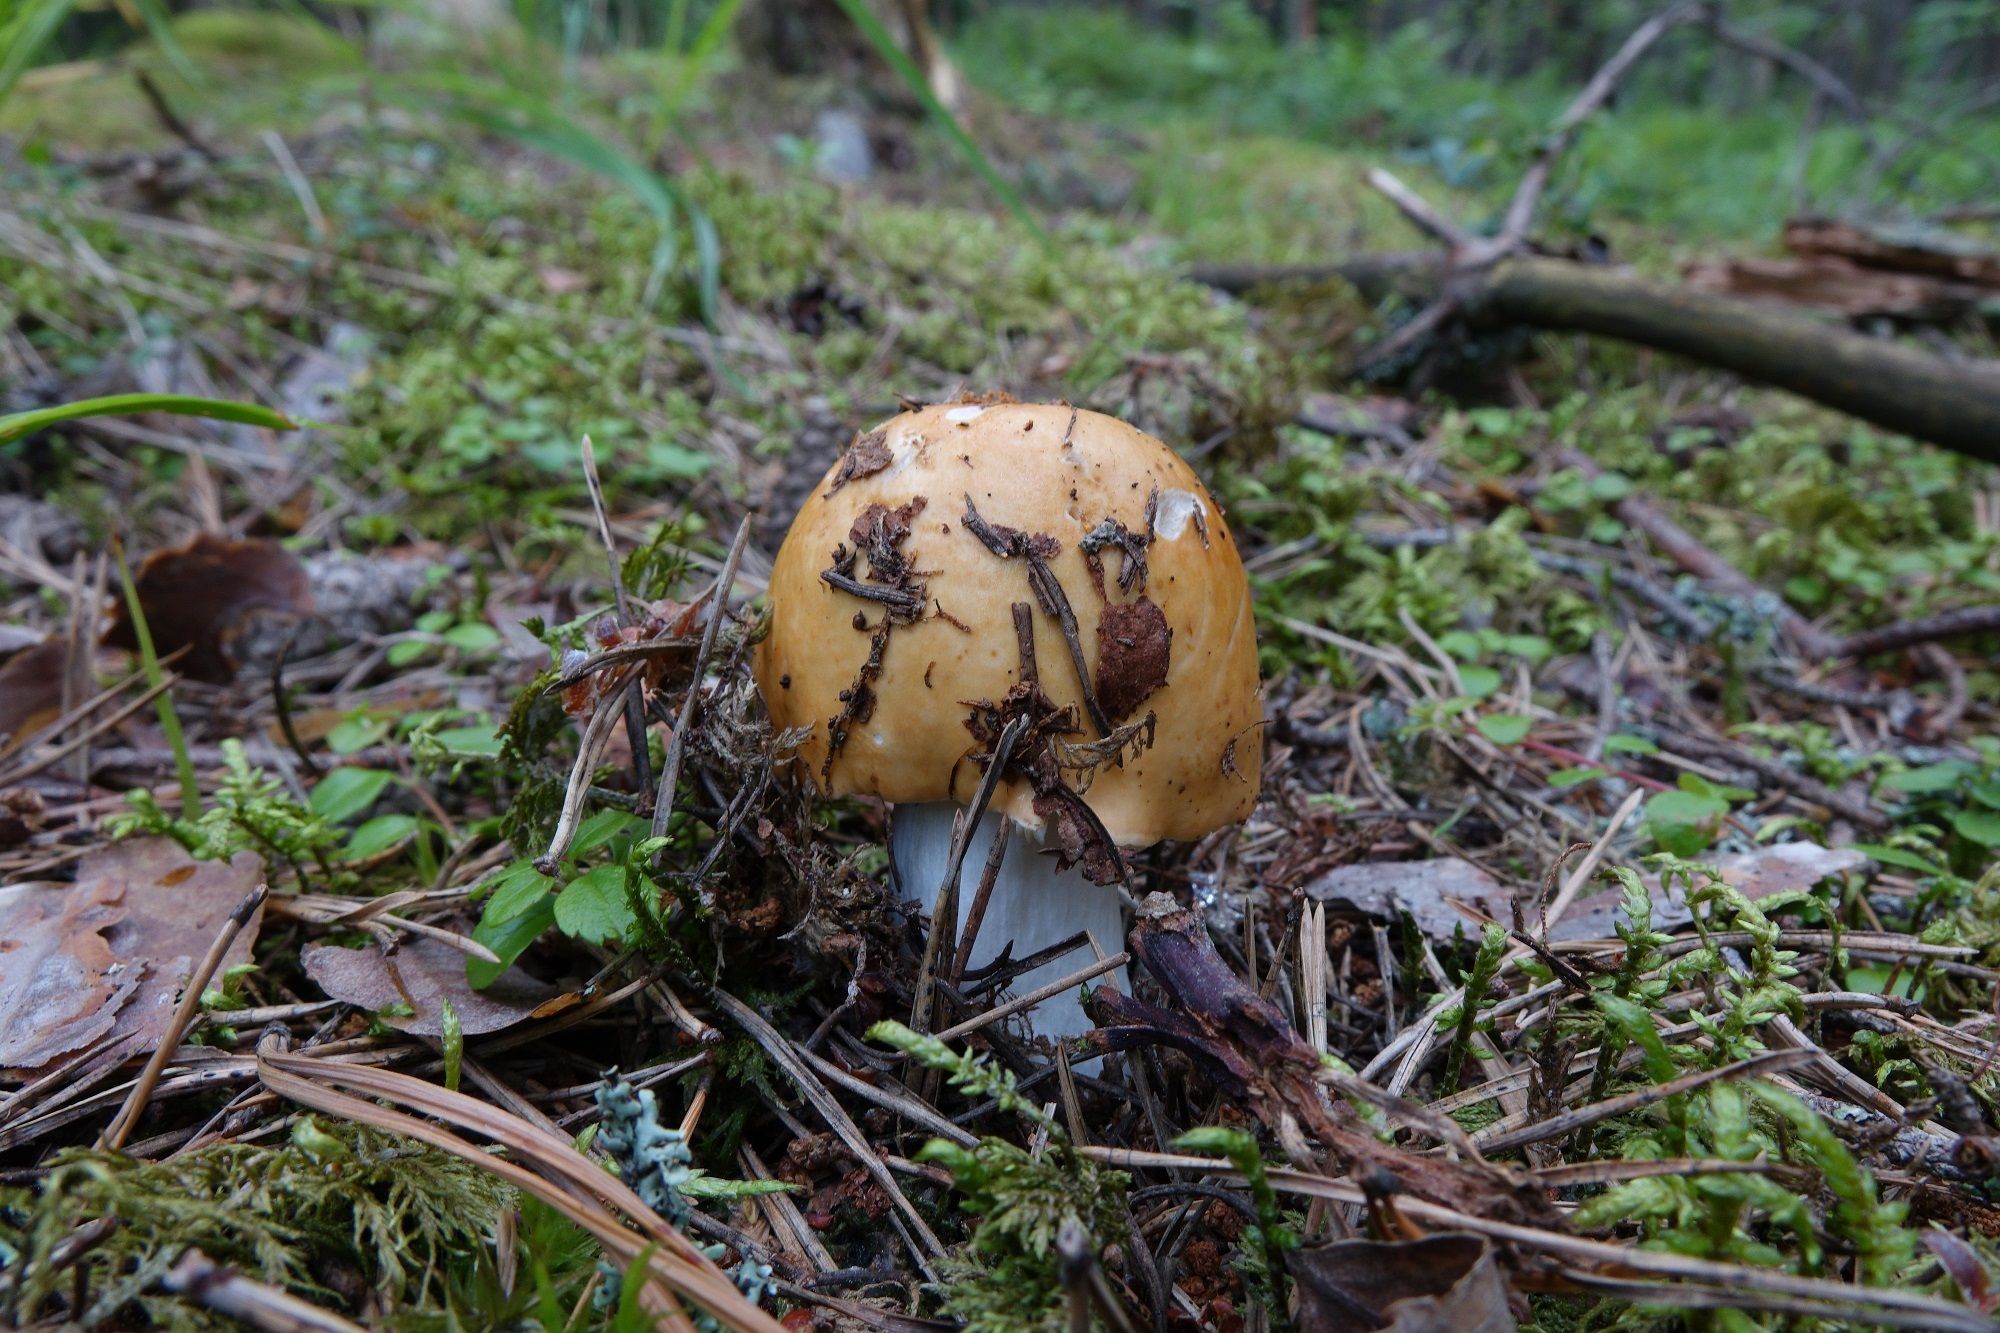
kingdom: Fungi
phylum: Basidiomycota
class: Agaricomycetes
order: Russulales
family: Russulaceae
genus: Russula
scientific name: Russula decolorans
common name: Copper brittlegill
